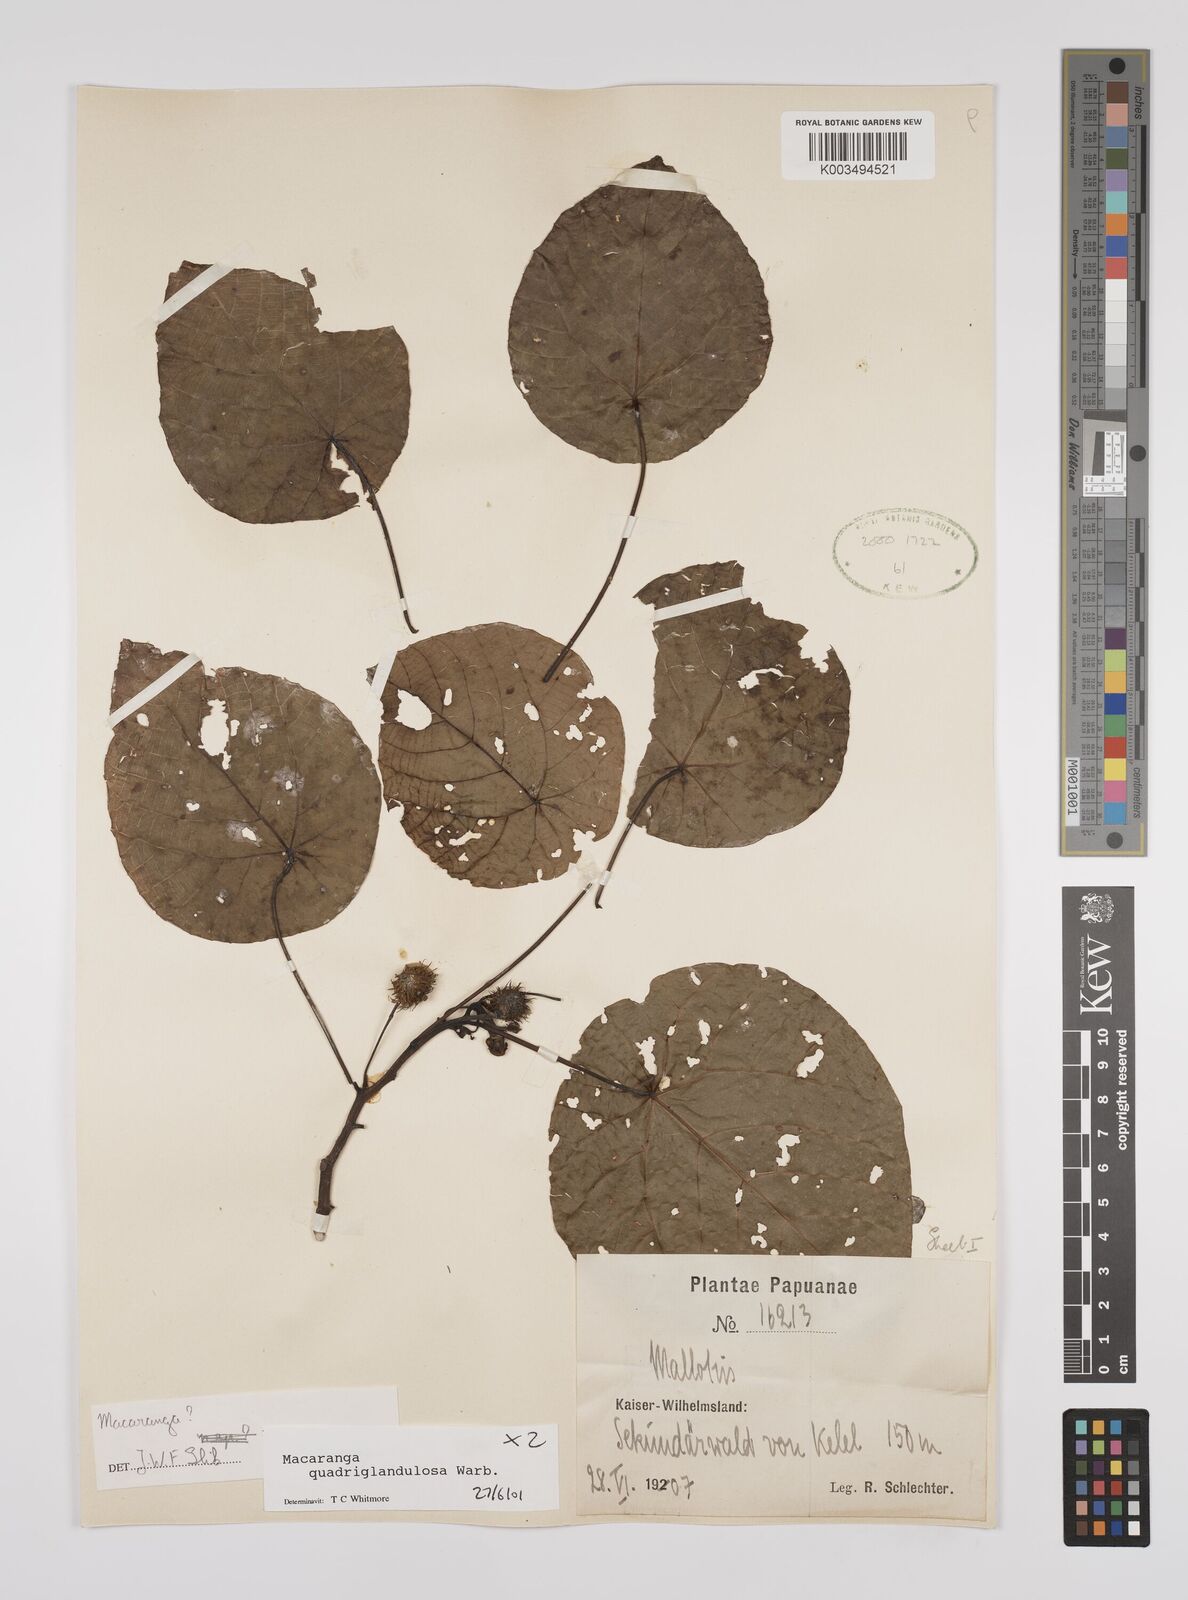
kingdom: Plantae
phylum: Tracheophyta
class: Magnoliopsida
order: Malpighiales
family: Euphorbiaceae
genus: Macaranga
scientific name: Macaranga quadriglandulosa
